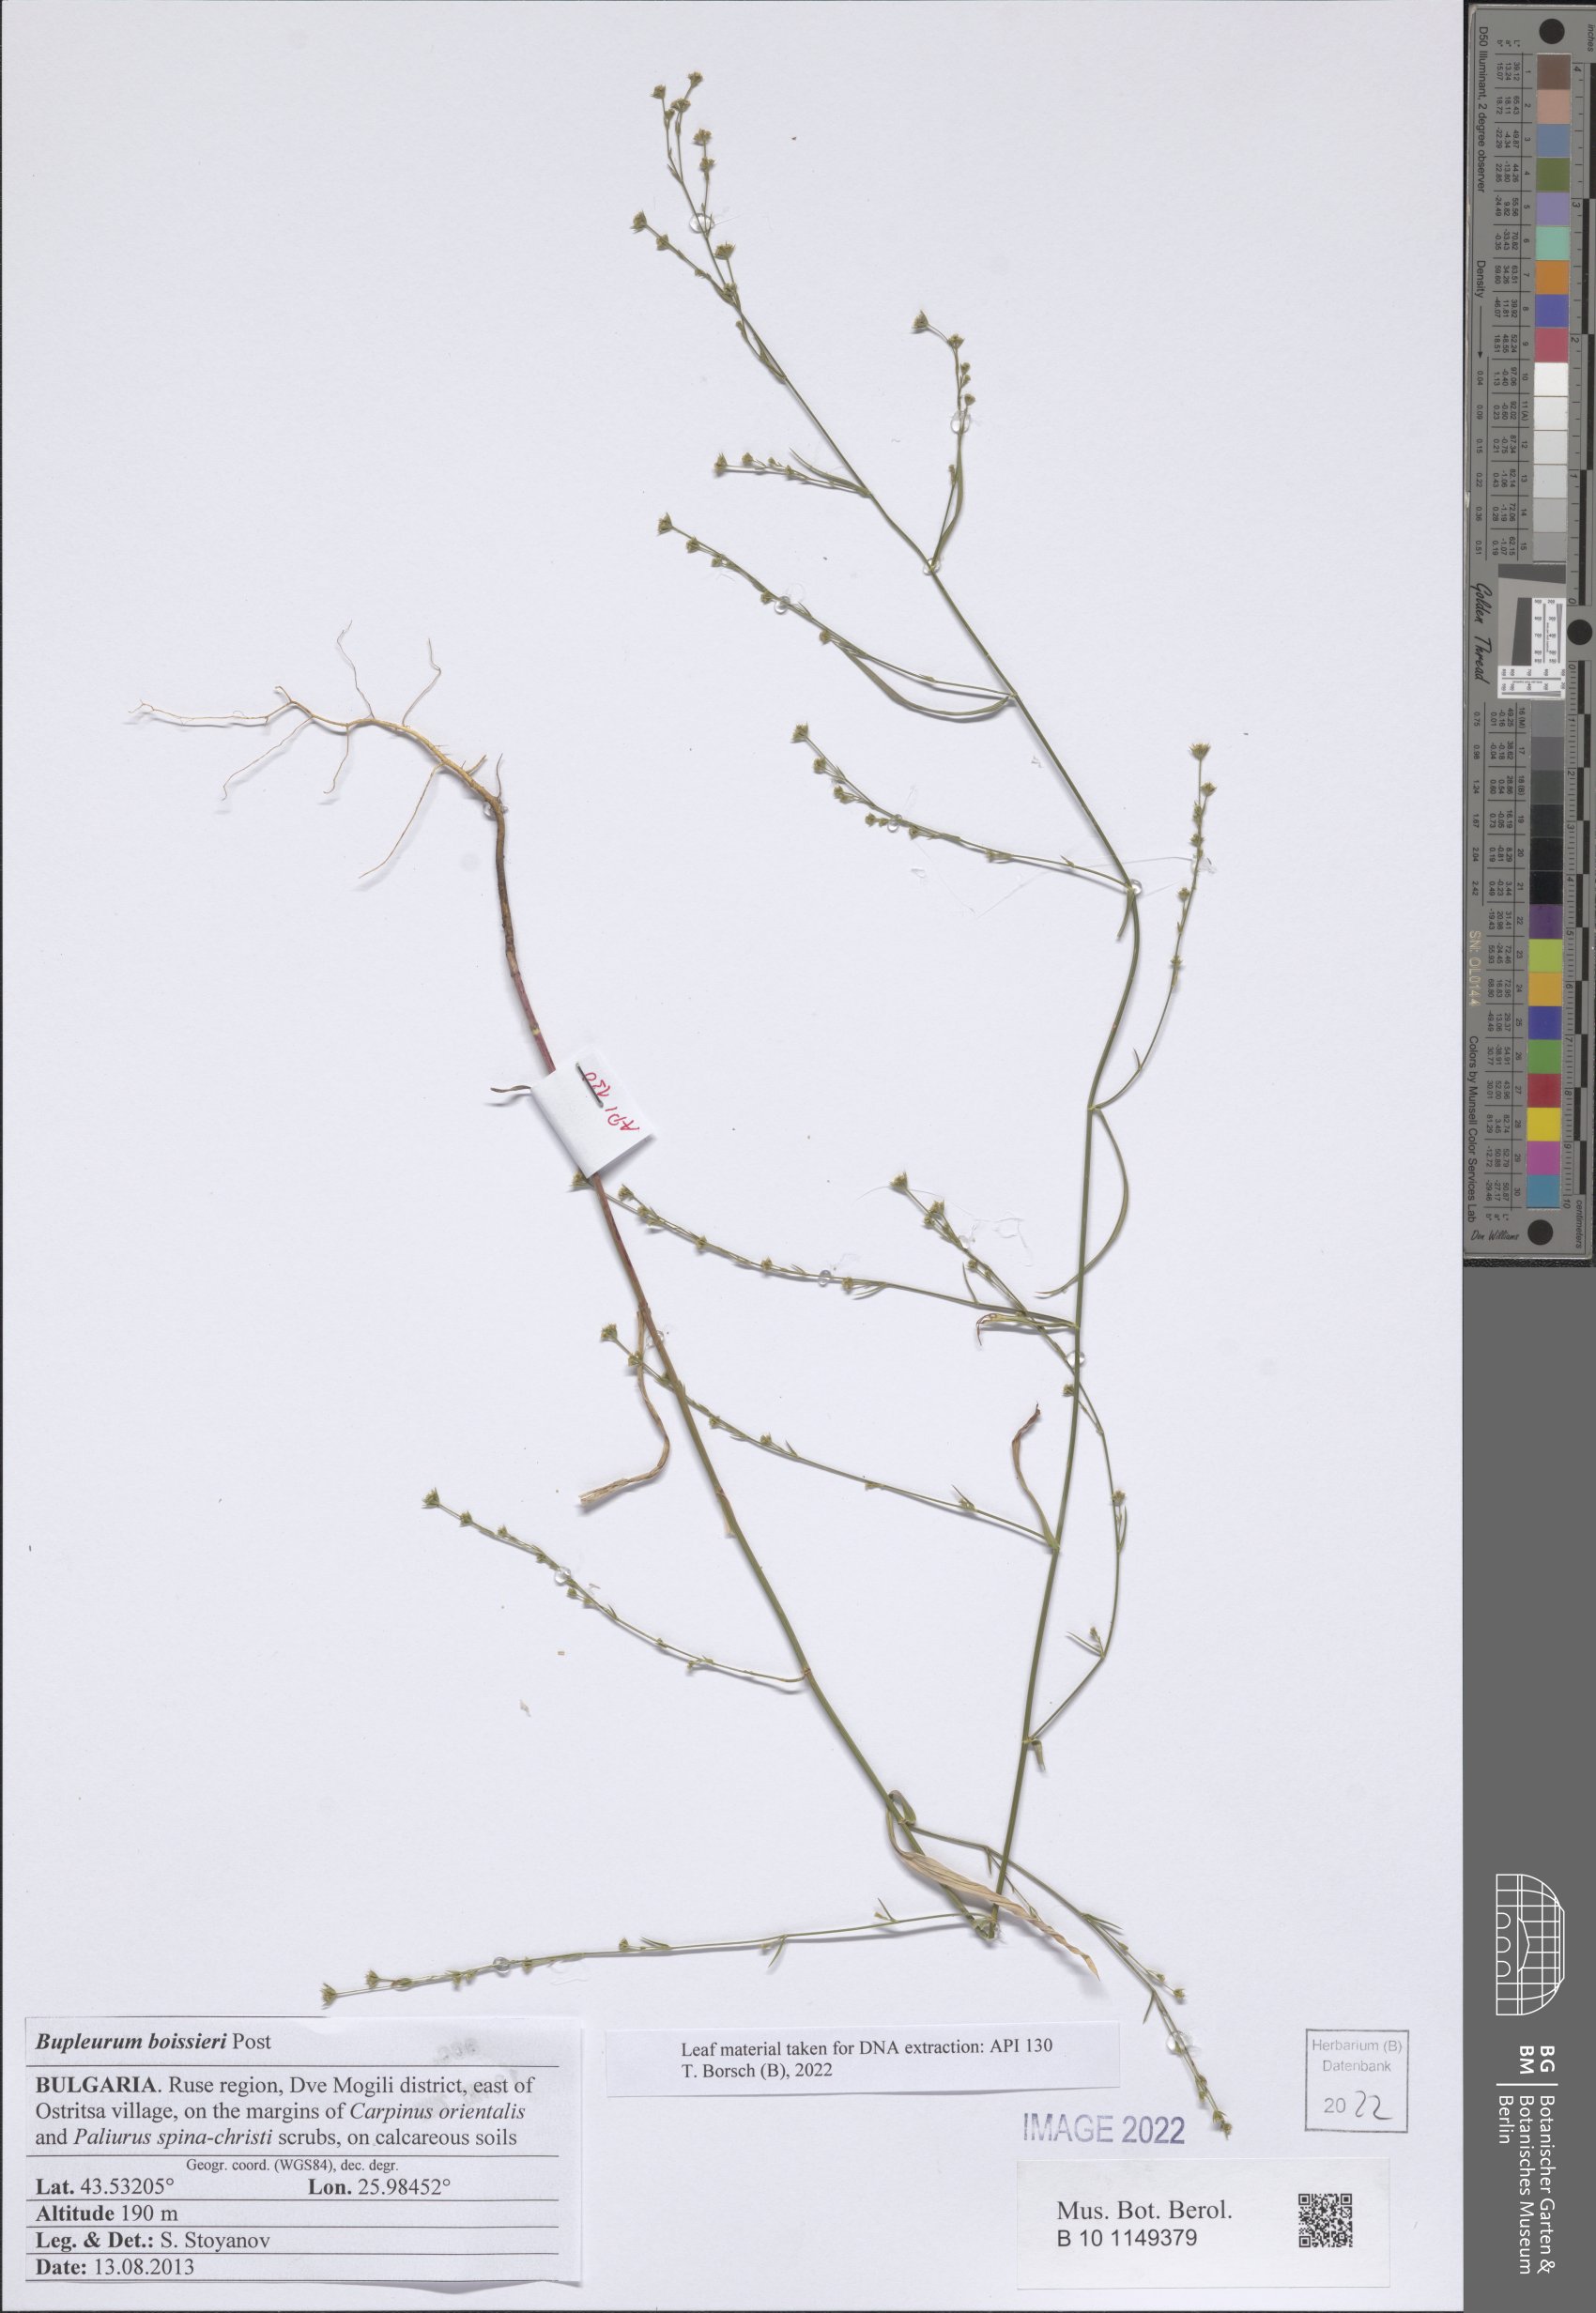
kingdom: Plantae
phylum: Tracheophyta
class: Magnoliopsida
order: Apiales
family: Apiaceae
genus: Bupleurum
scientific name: Bupleurum boissieri
